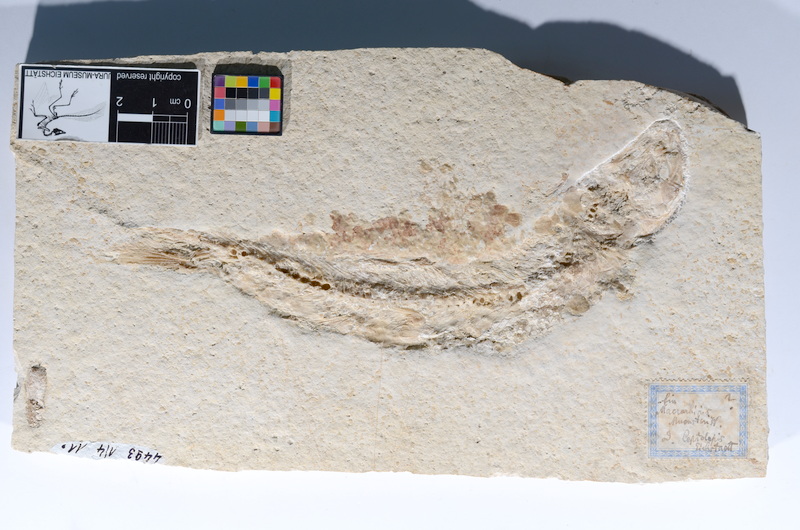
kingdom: Animalia
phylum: Chordata
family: Ascalaboidae
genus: Tharsis
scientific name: Tharsis dubius
